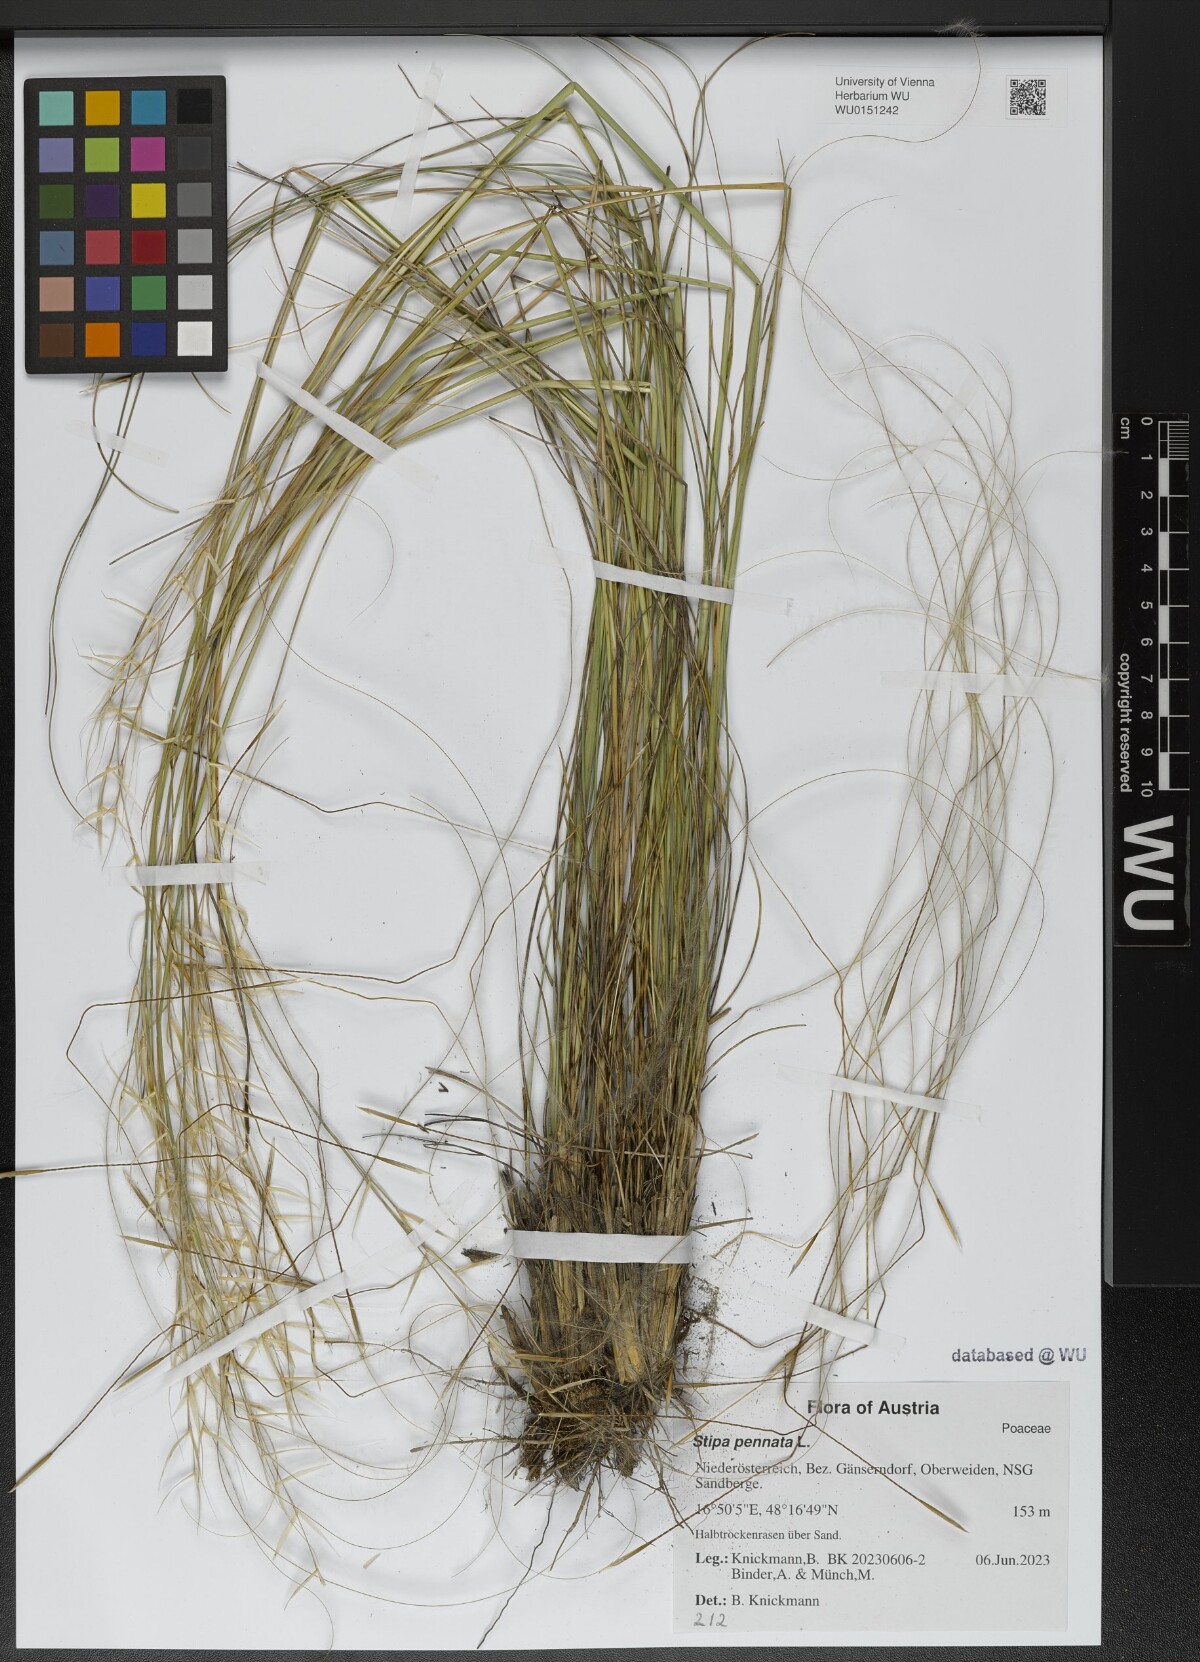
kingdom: Plantae
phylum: Tracheophyta
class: Liliopsida
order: Poales
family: Poaceae
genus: Stipa
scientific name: Stipa pennata
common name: European feather grass
